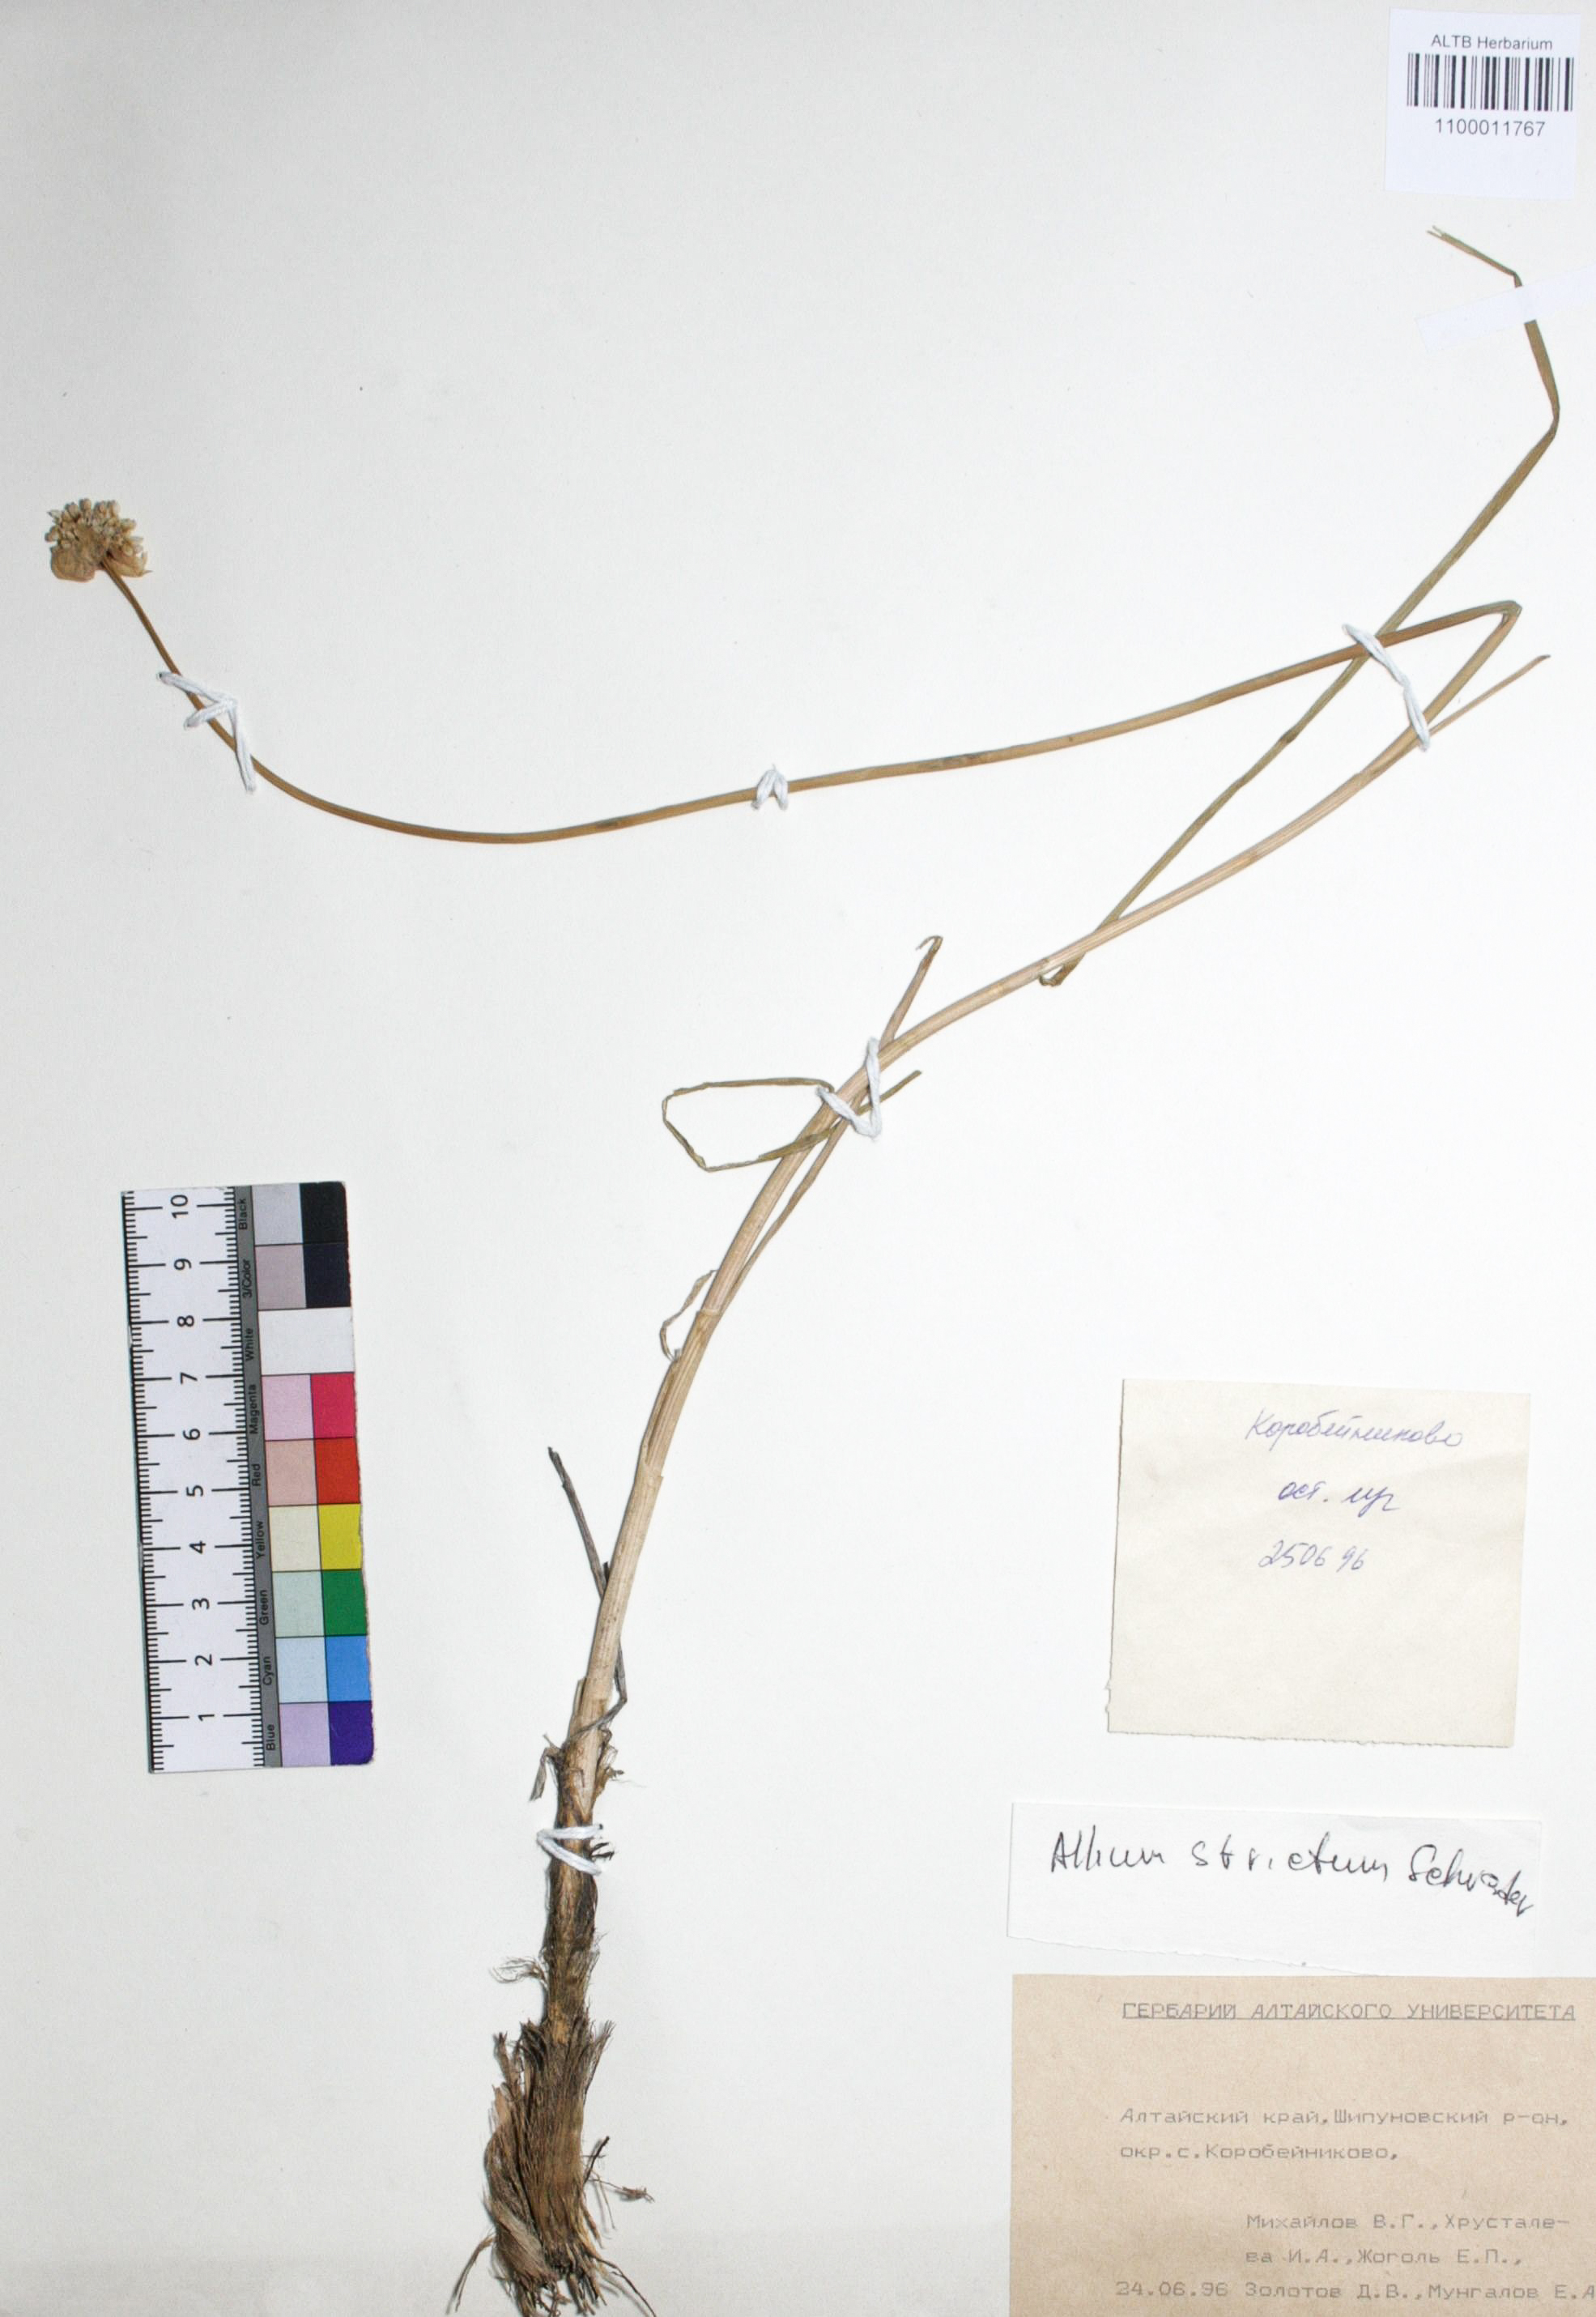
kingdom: Plantae
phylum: Tracheophyta
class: Liliopsida
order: Asparagales
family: Amaryllidaceae
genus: Allium
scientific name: Allium strictum
